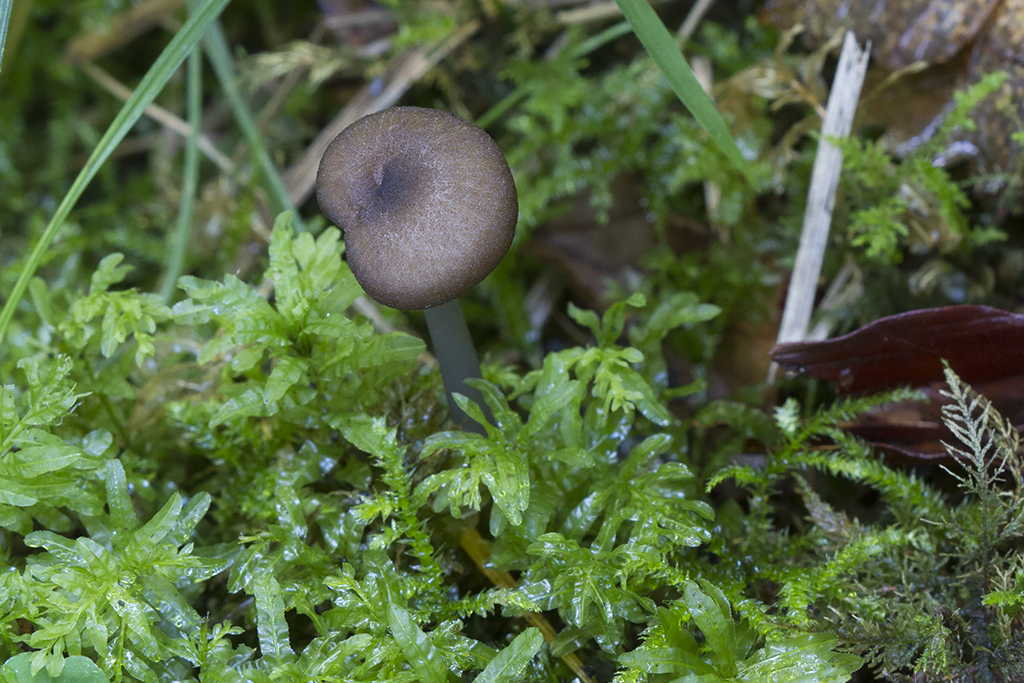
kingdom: Fungi
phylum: Basidiomycota
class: Agaricomycetes
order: Agaricales
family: Entolomataceae
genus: Entoloma
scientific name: Entoloma anatinum
